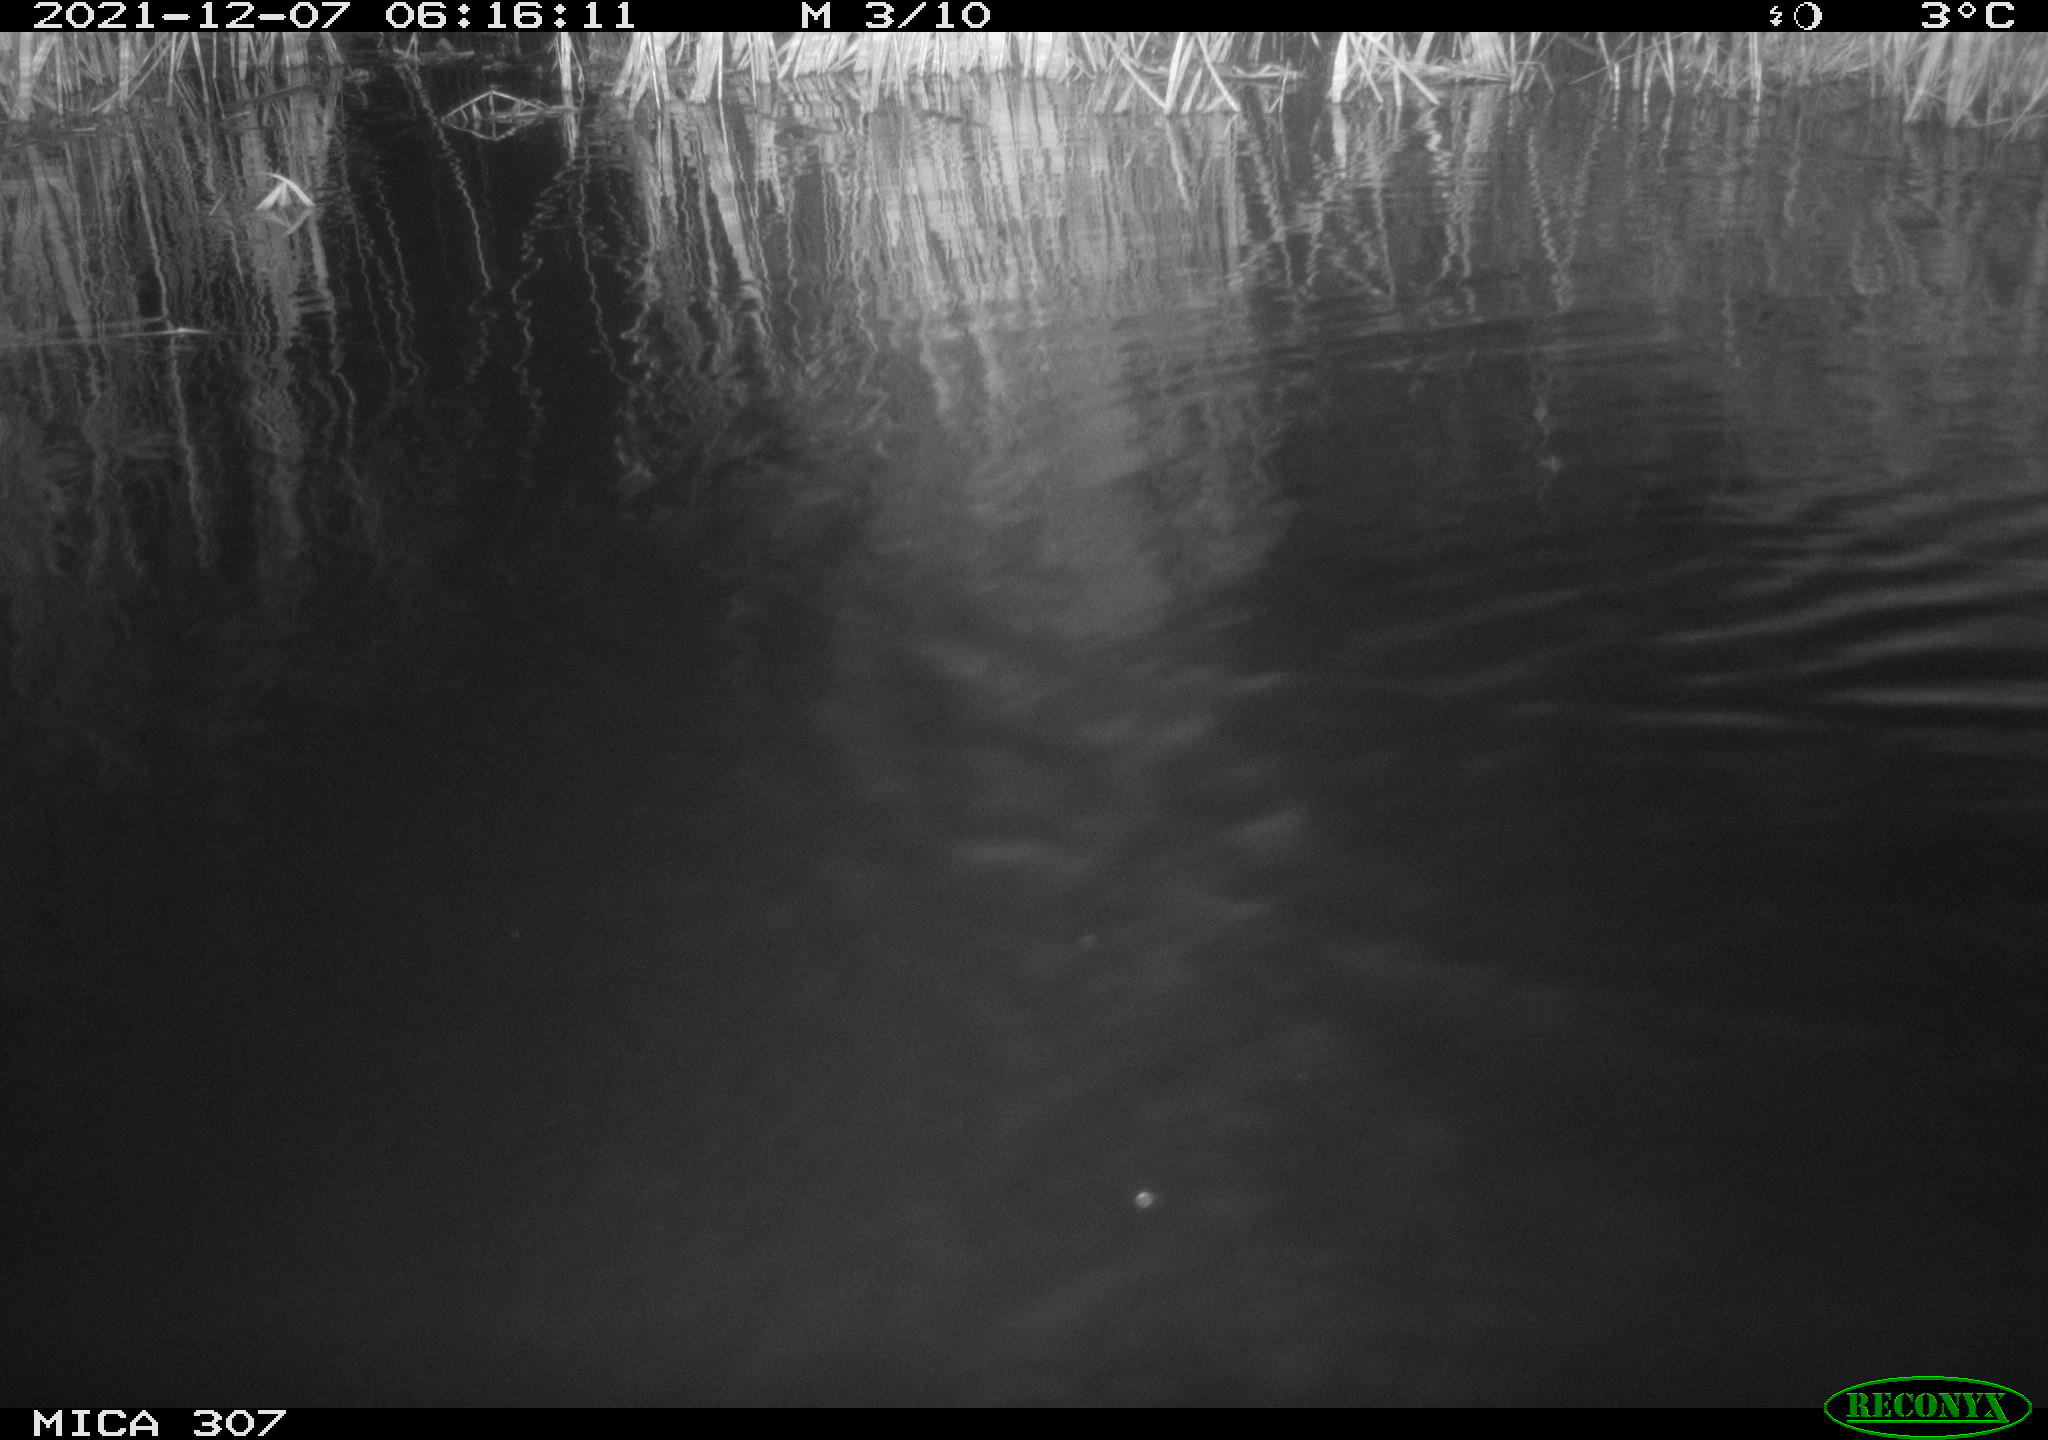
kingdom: Animalia
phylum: Chordata
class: Mammalia
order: Rodentia
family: Muridae
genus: Rattus
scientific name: Rattus norvegicus
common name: Brown rat
